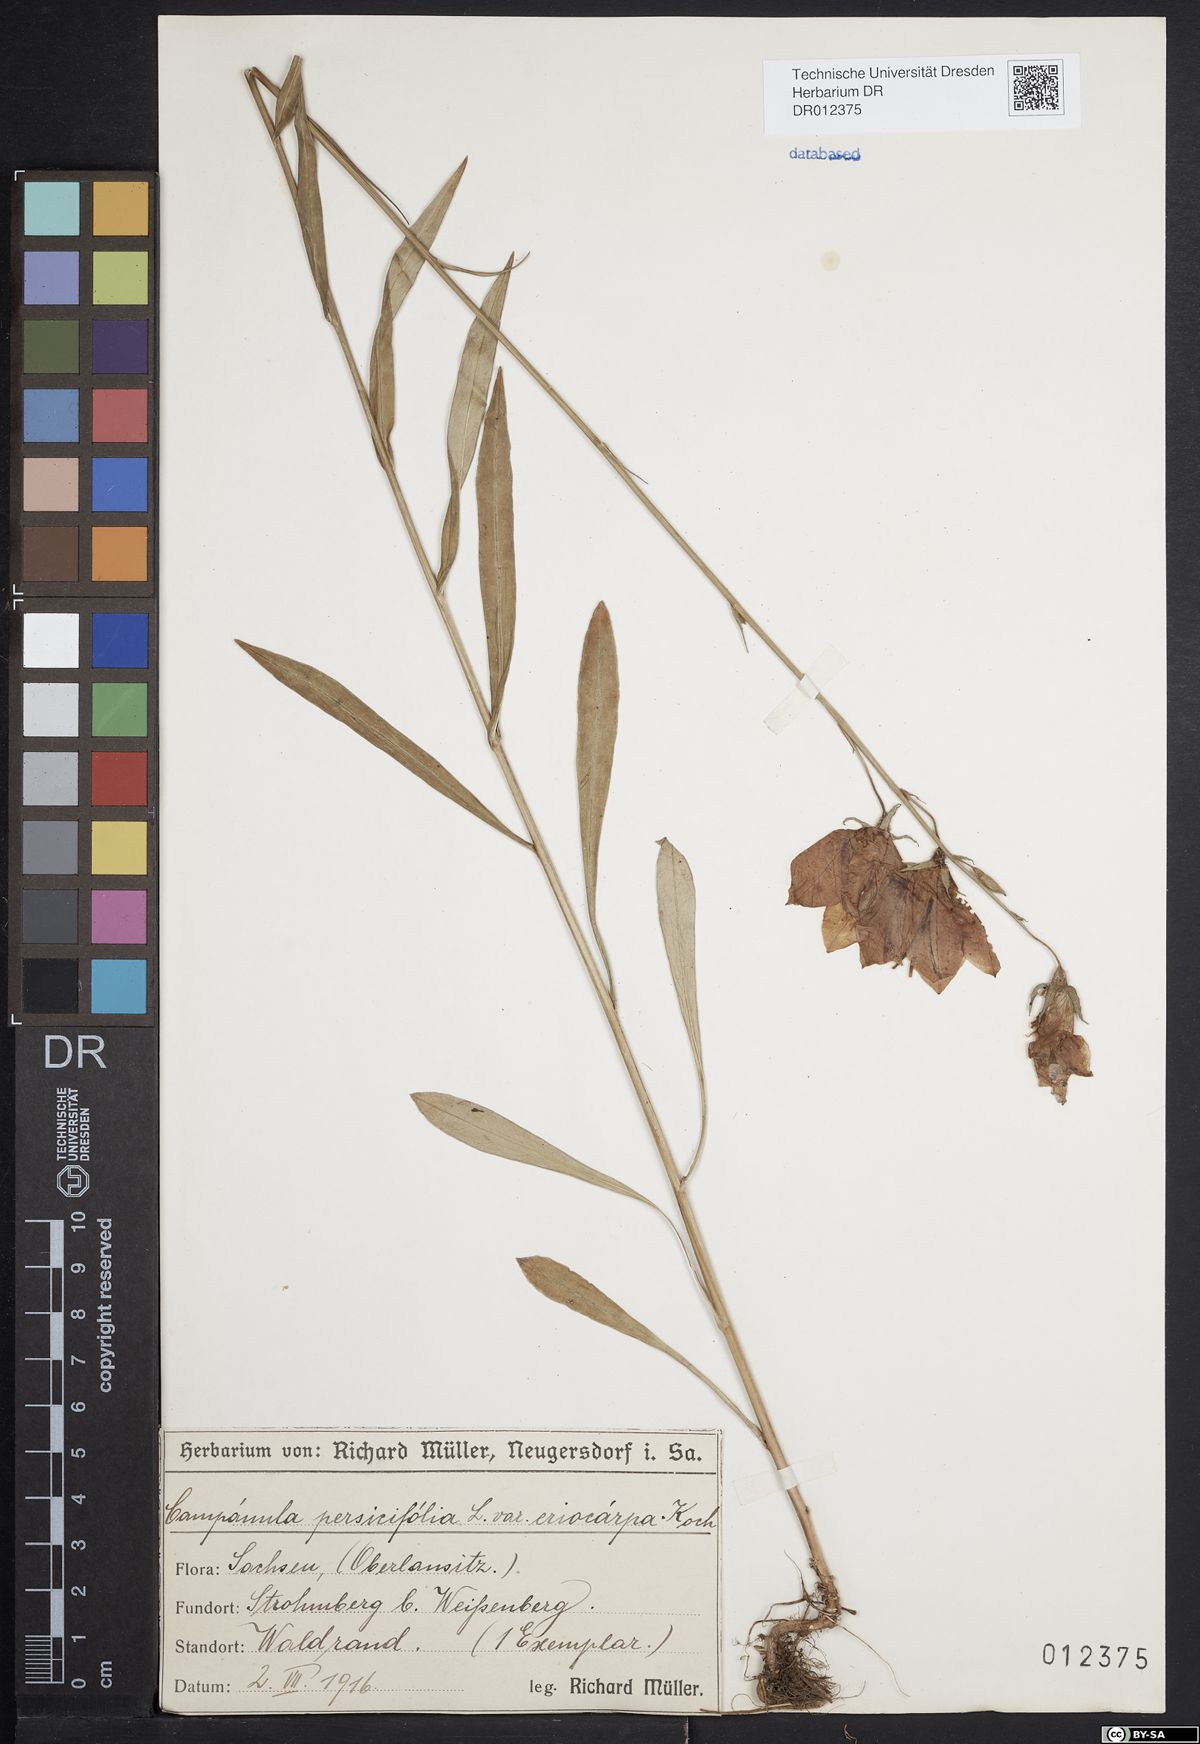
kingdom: Plantae
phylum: Tracheophyta
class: Magnoliopsida
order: Asterales
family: Campanulaceae
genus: Campanula
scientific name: Campanula persicifolia
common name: Peach-leaved bellflower
